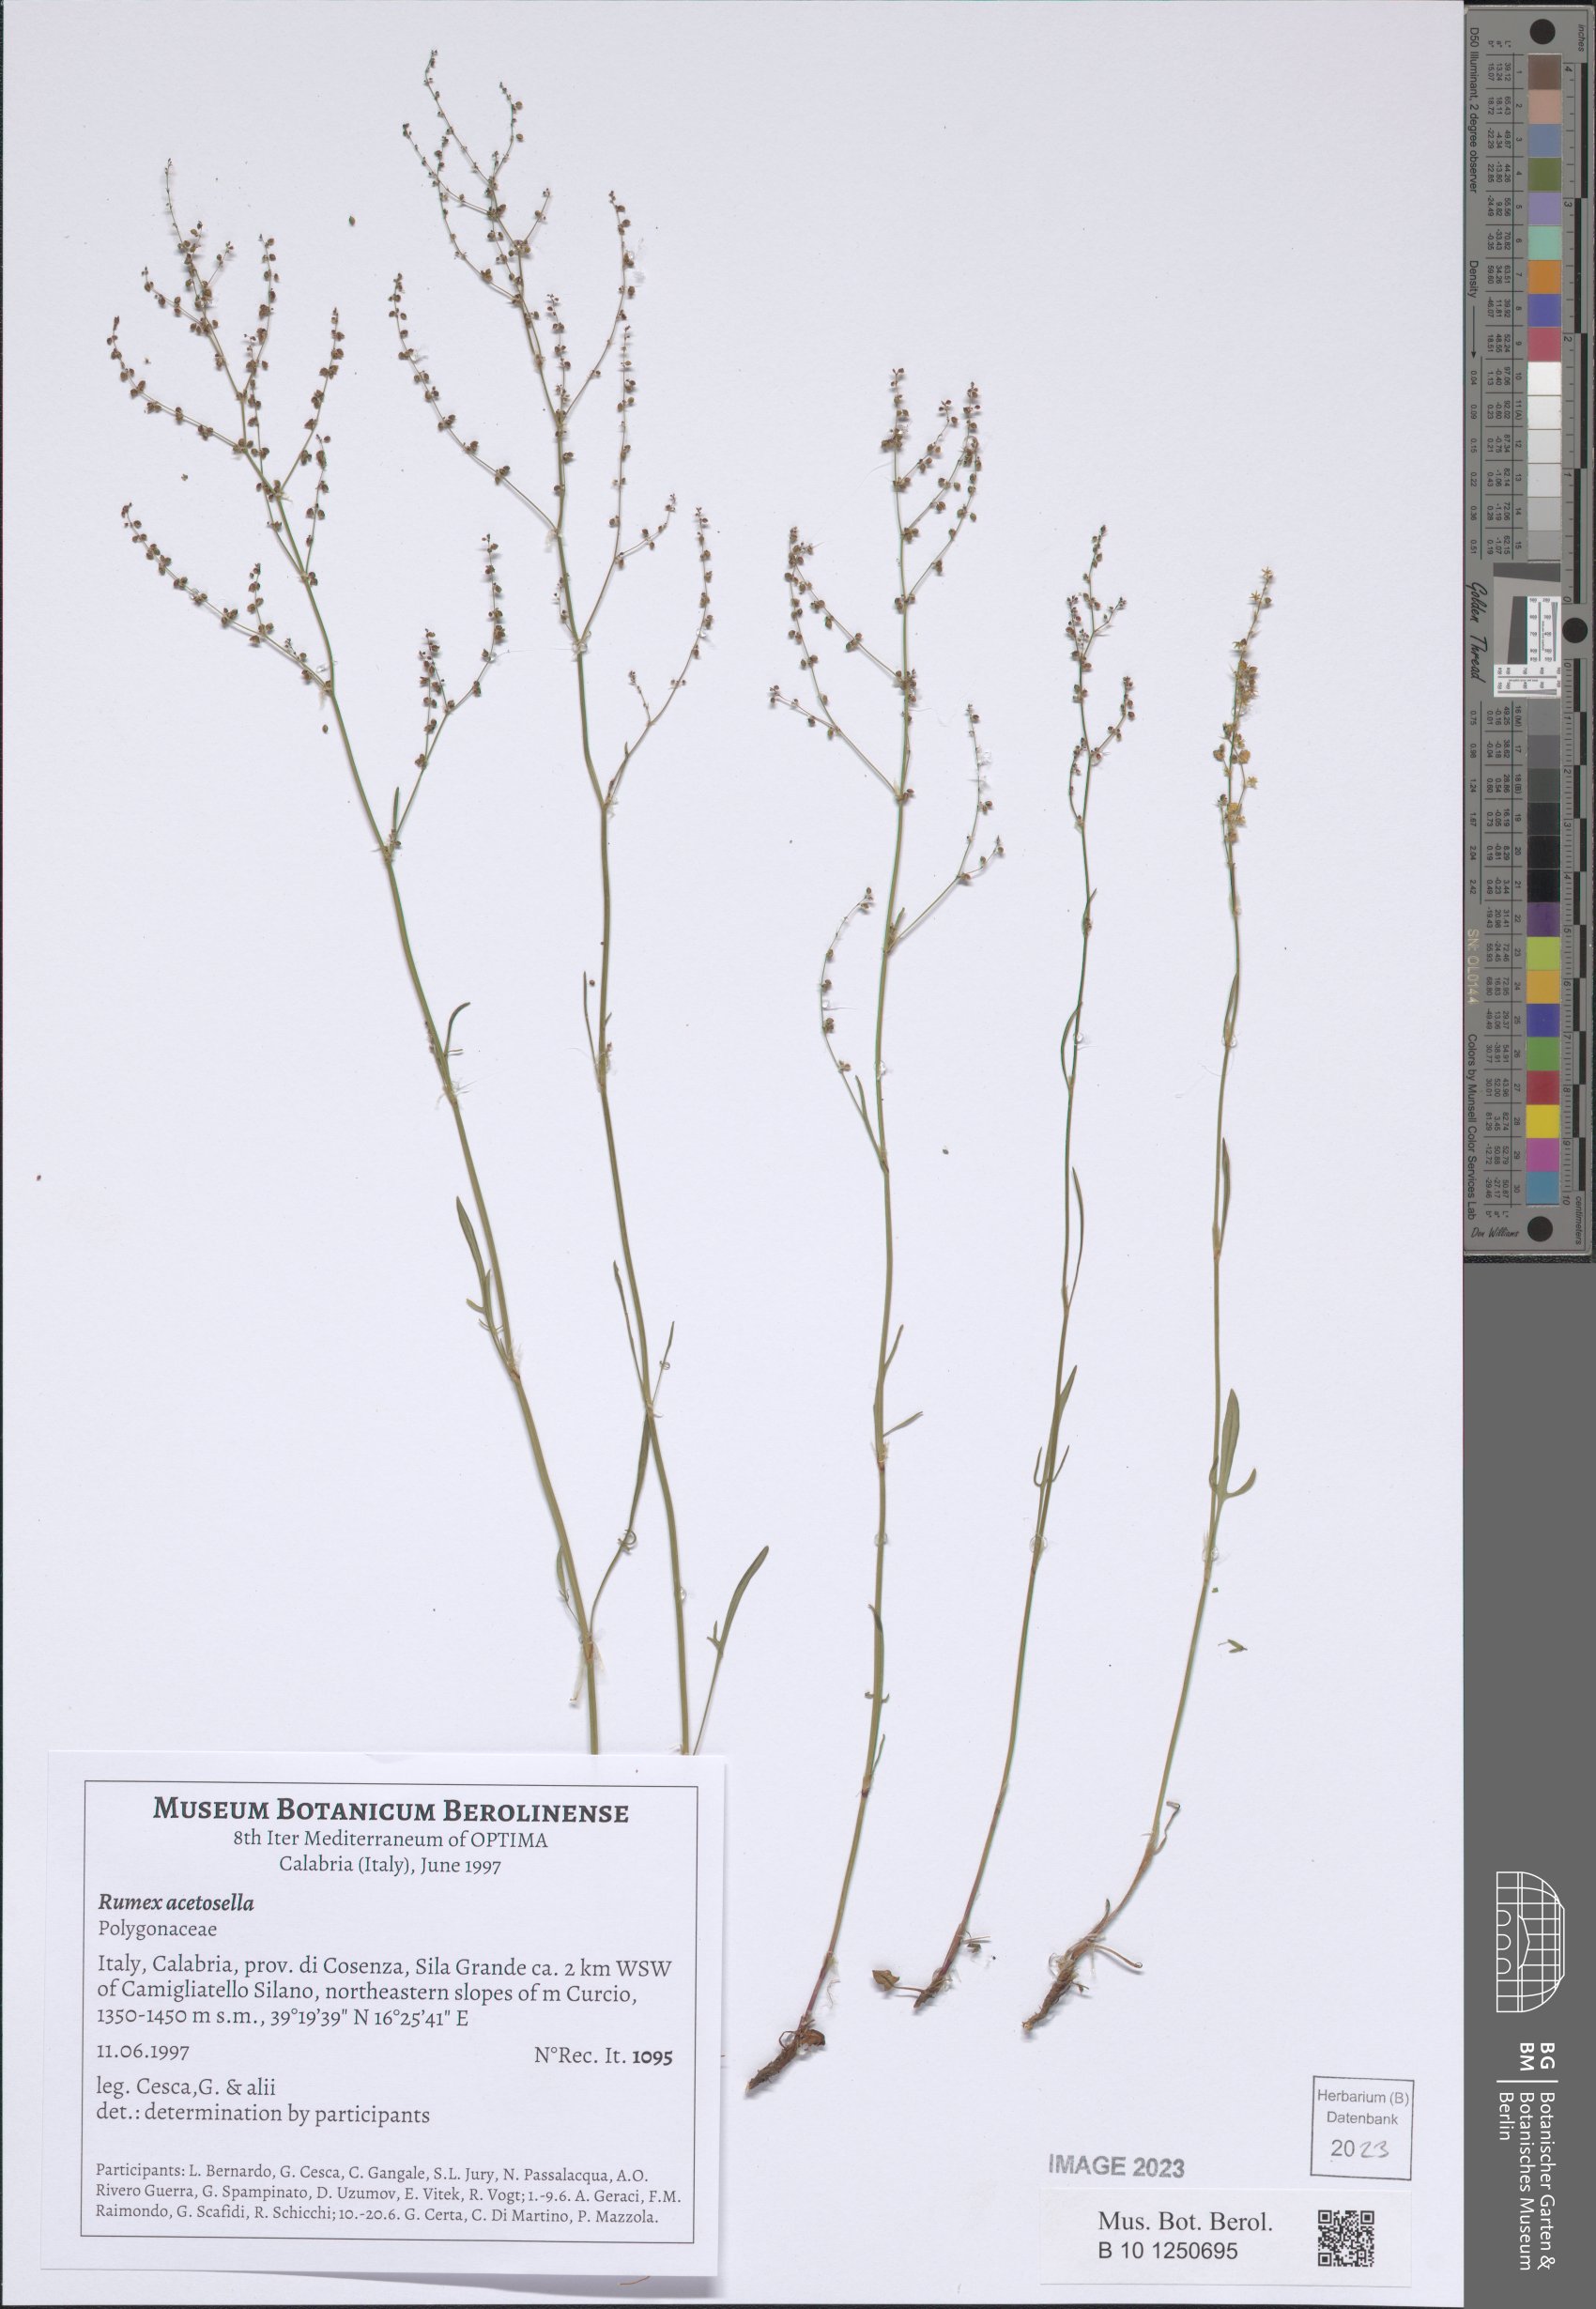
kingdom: Plantae
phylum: Tracheophyta
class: Magnoliopsida
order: Caryophyllales
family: Polygonaceae
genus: Rumex
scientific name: Rumex acetosella
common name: Common sheep sorrel
